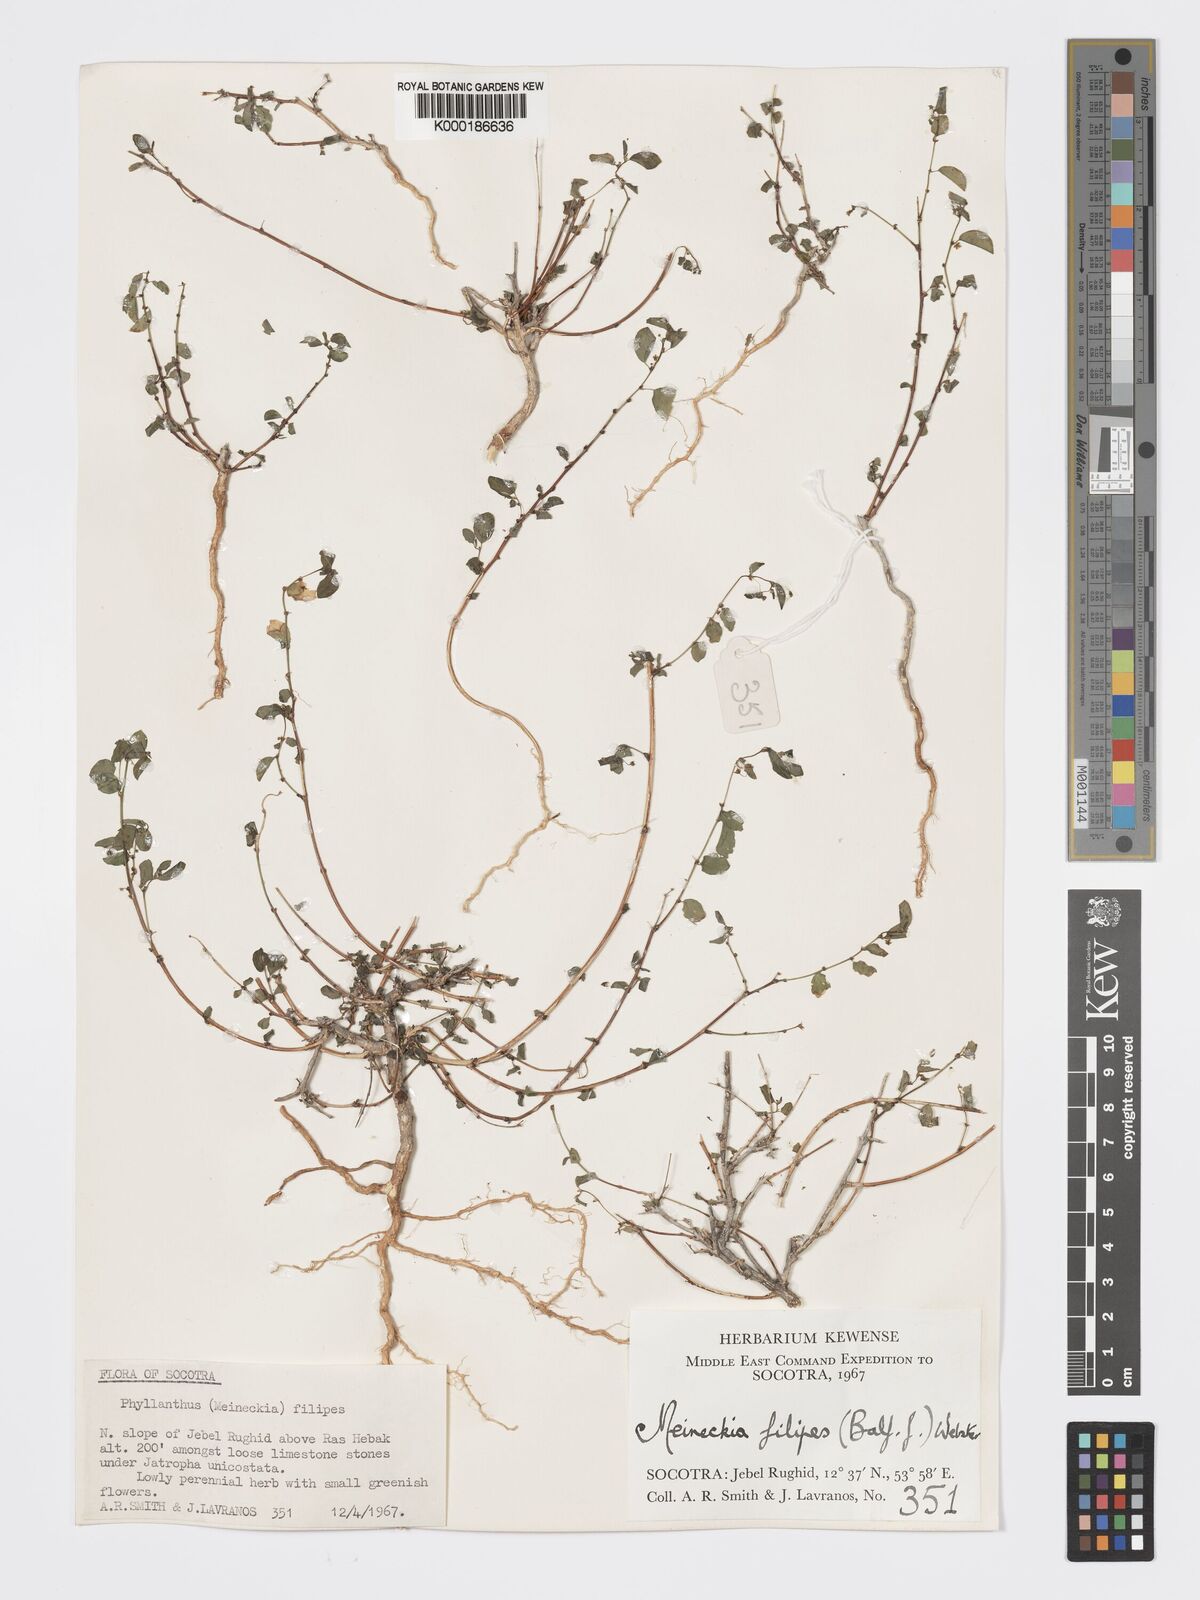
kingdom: Plantae
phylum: Tracheophyta
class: Magnoliopsida
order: Malpighiales
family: Phyllanthaceae
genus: Meineckia
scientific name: Meineckia filipes
